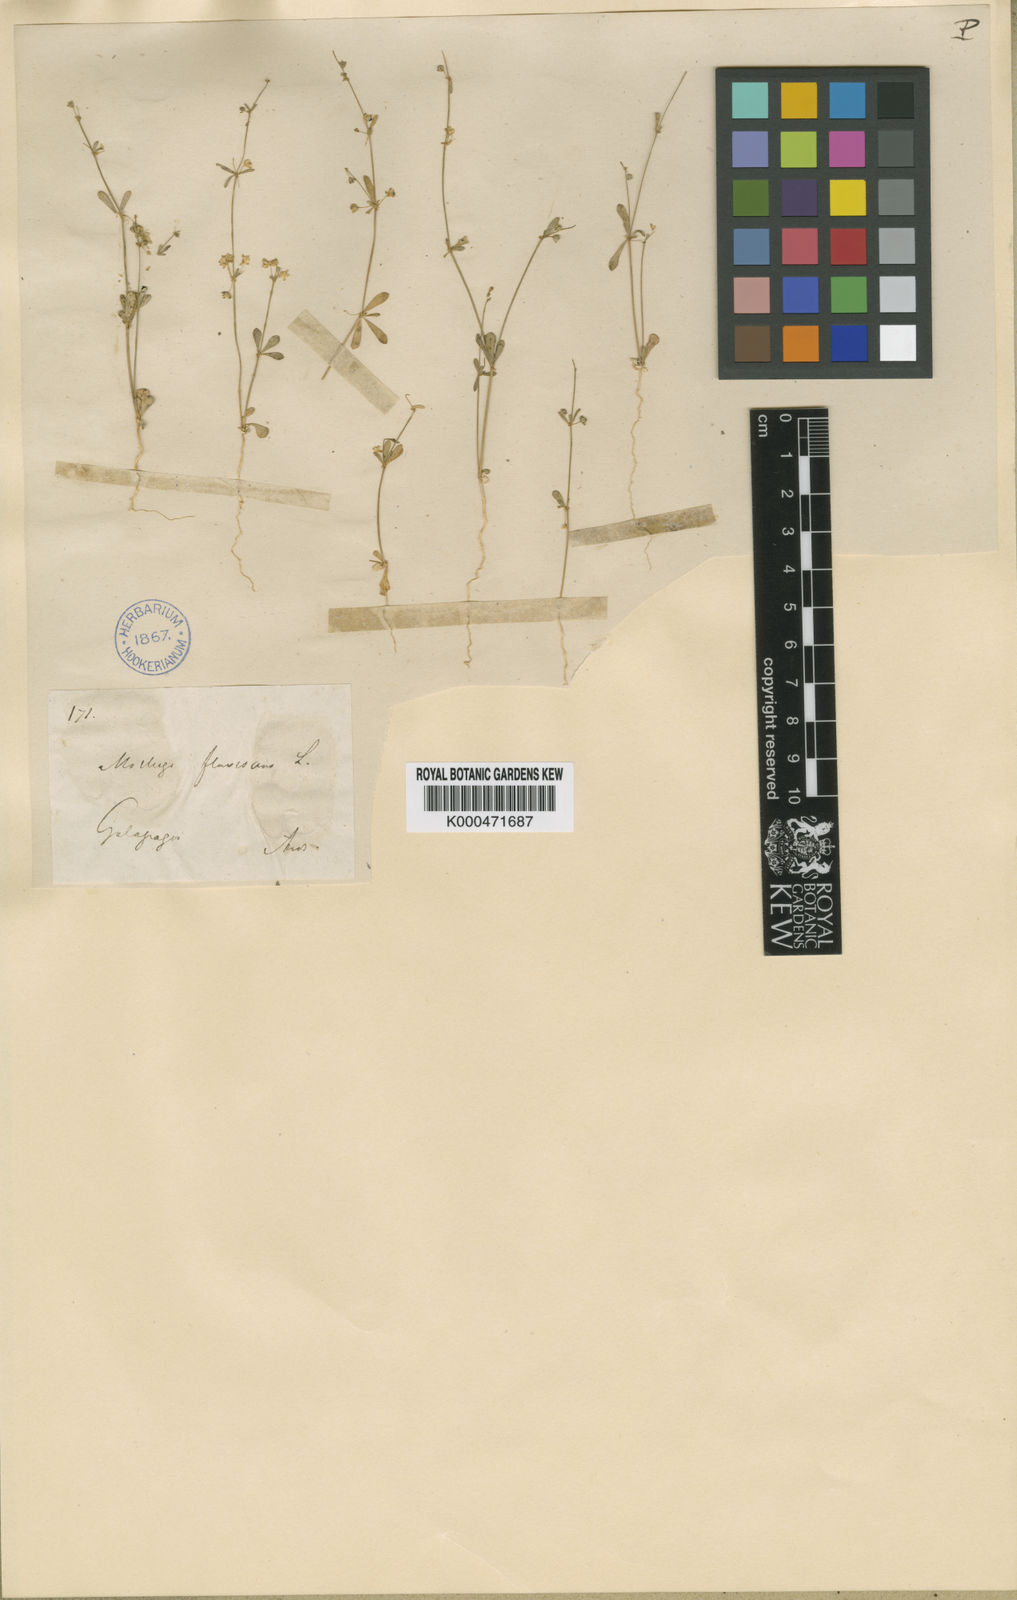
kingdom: Plantae
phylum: Tracheophyta
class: Magnoliopsida
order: Caryophyllales
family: Molluginaceae
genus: Mollugo
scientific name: Mollugo flavescens
